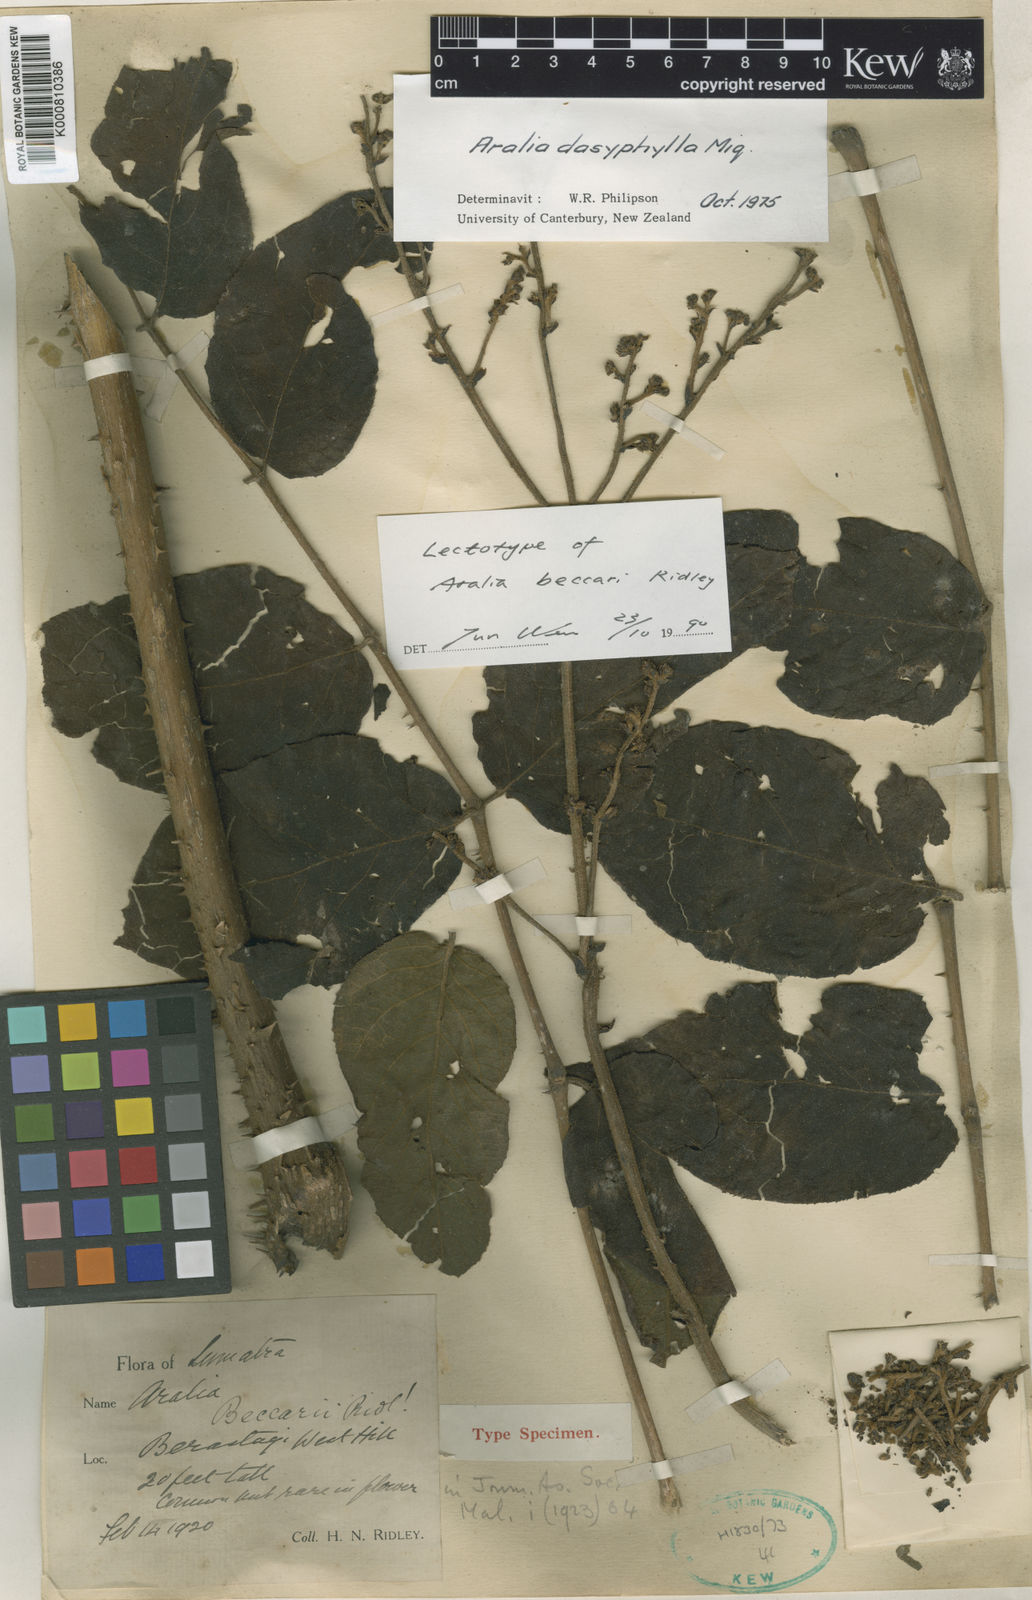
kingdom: Plantae
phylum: Tracheophyta
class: Magnoliopsida
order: Apiales
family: Araliaceae
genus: Aralia
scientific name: Aralia dasyphylla
